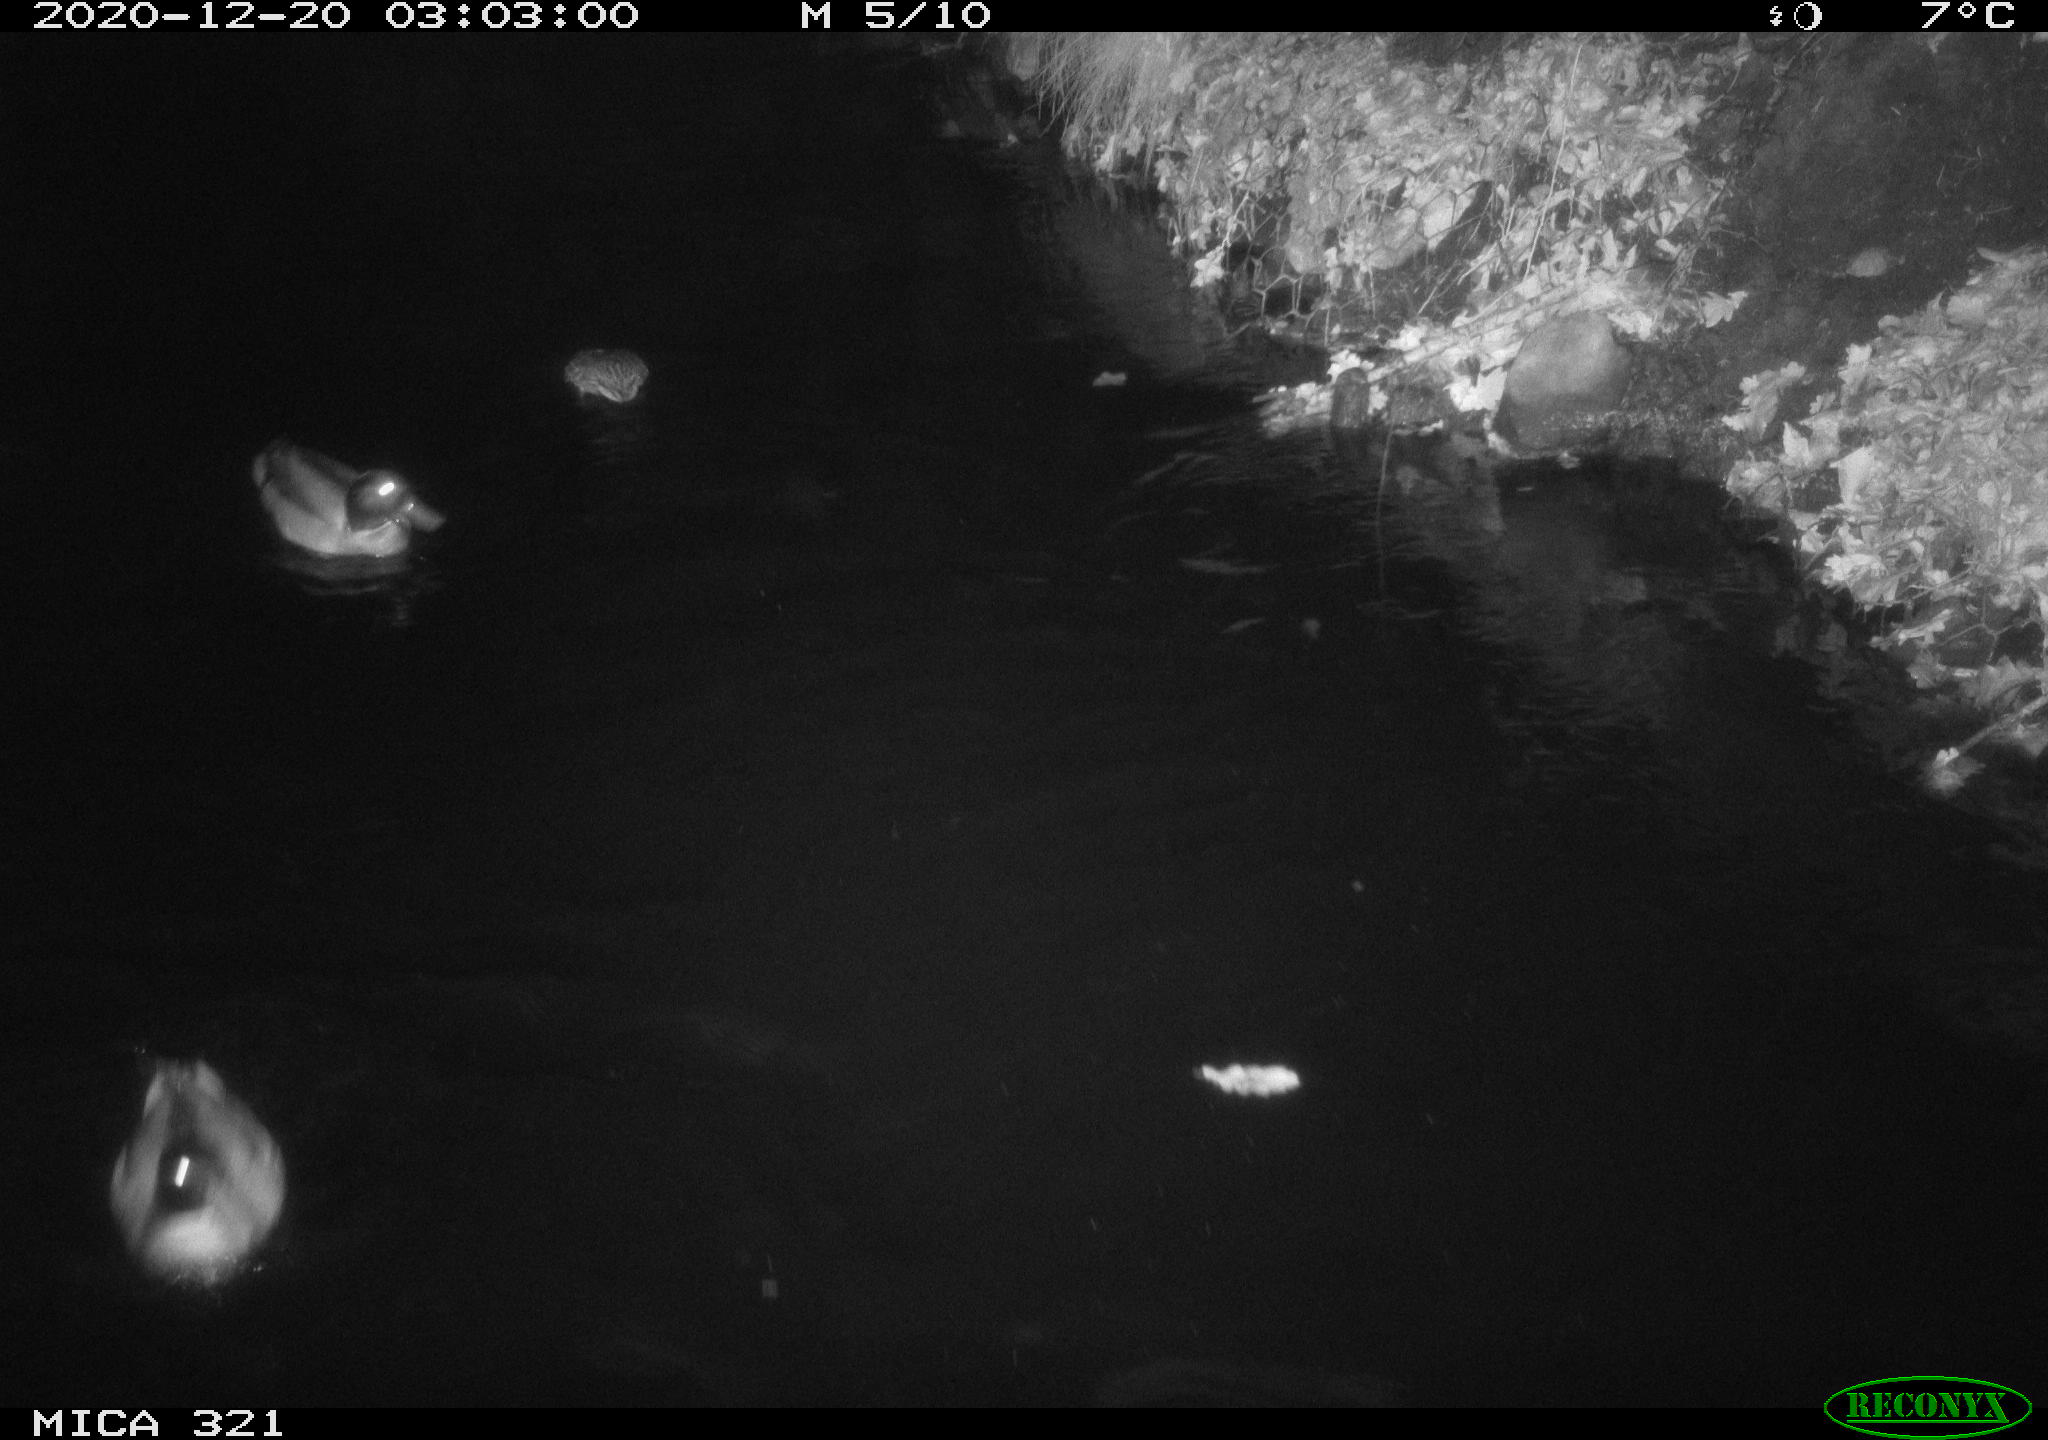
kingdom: Animalia
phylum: Chordata
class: Aves
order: Anseriformes
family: Anatidae
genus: Anas
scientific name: Anas platyrhynchos
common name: Mallard
